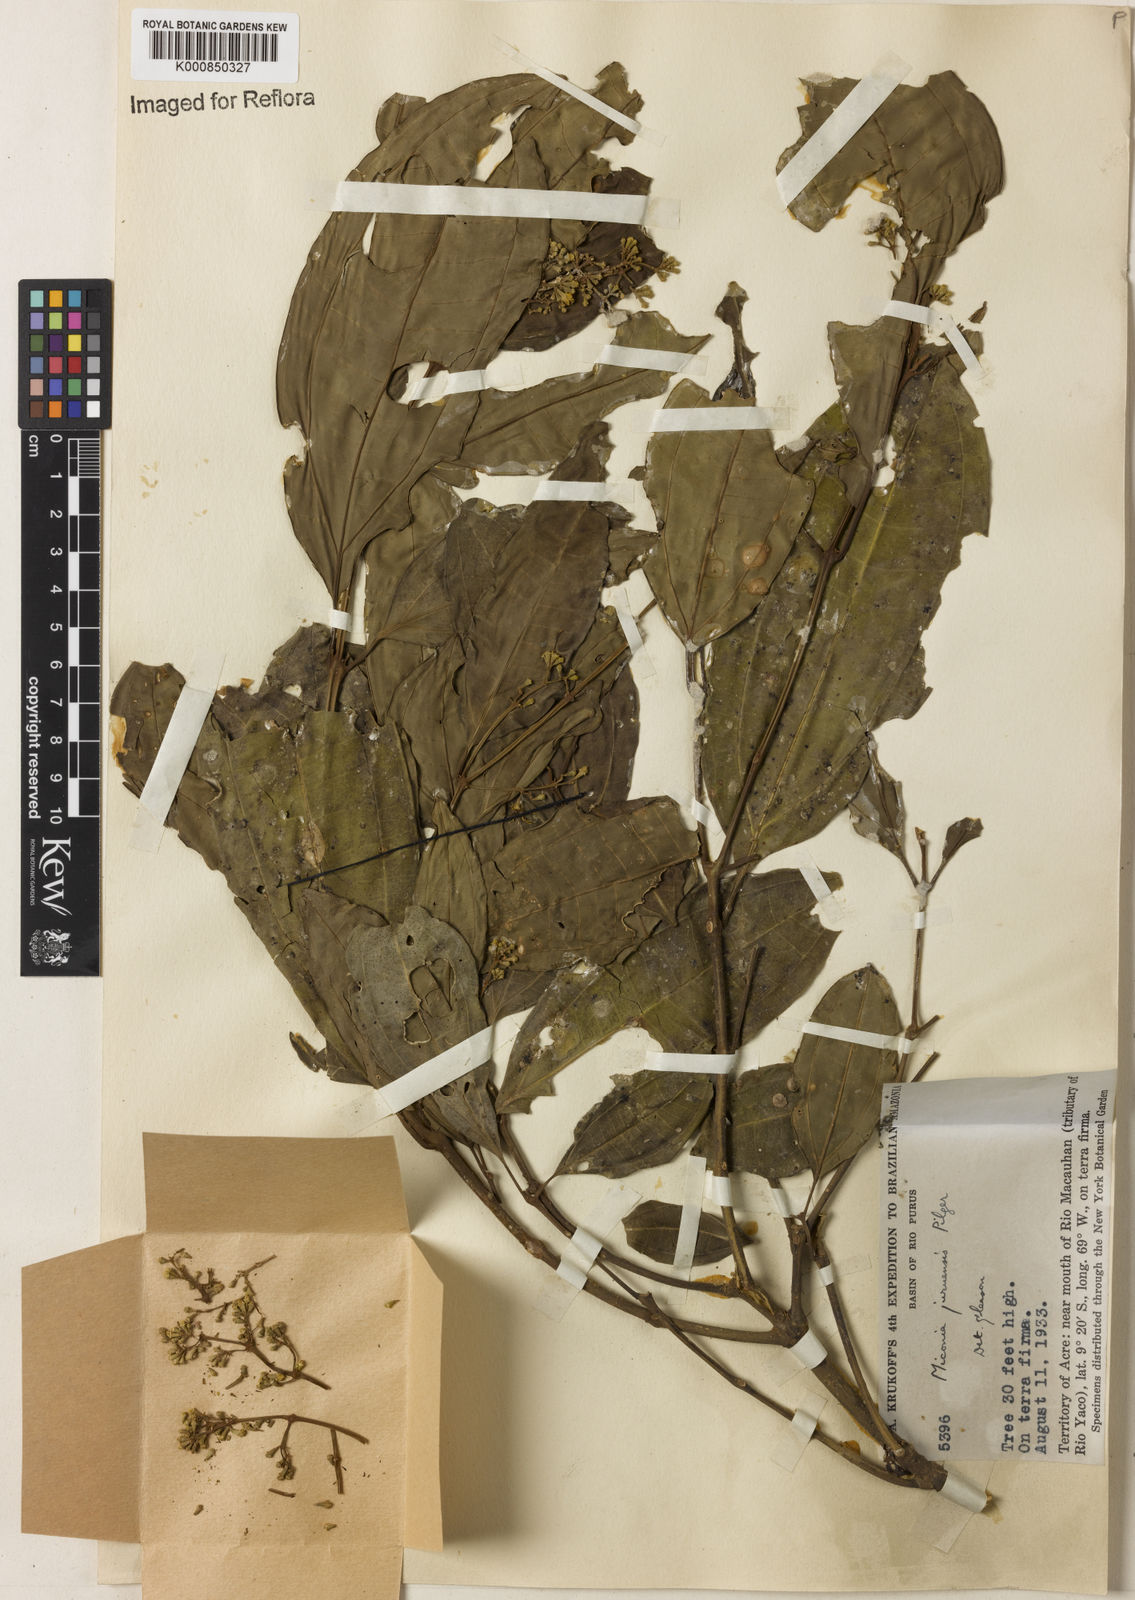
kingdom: Plantae
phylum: Tracheophyta
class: Magnoliopsida
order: Myrtales
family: Melastomataceae
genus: Miconia
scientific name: Miconia juruensis
